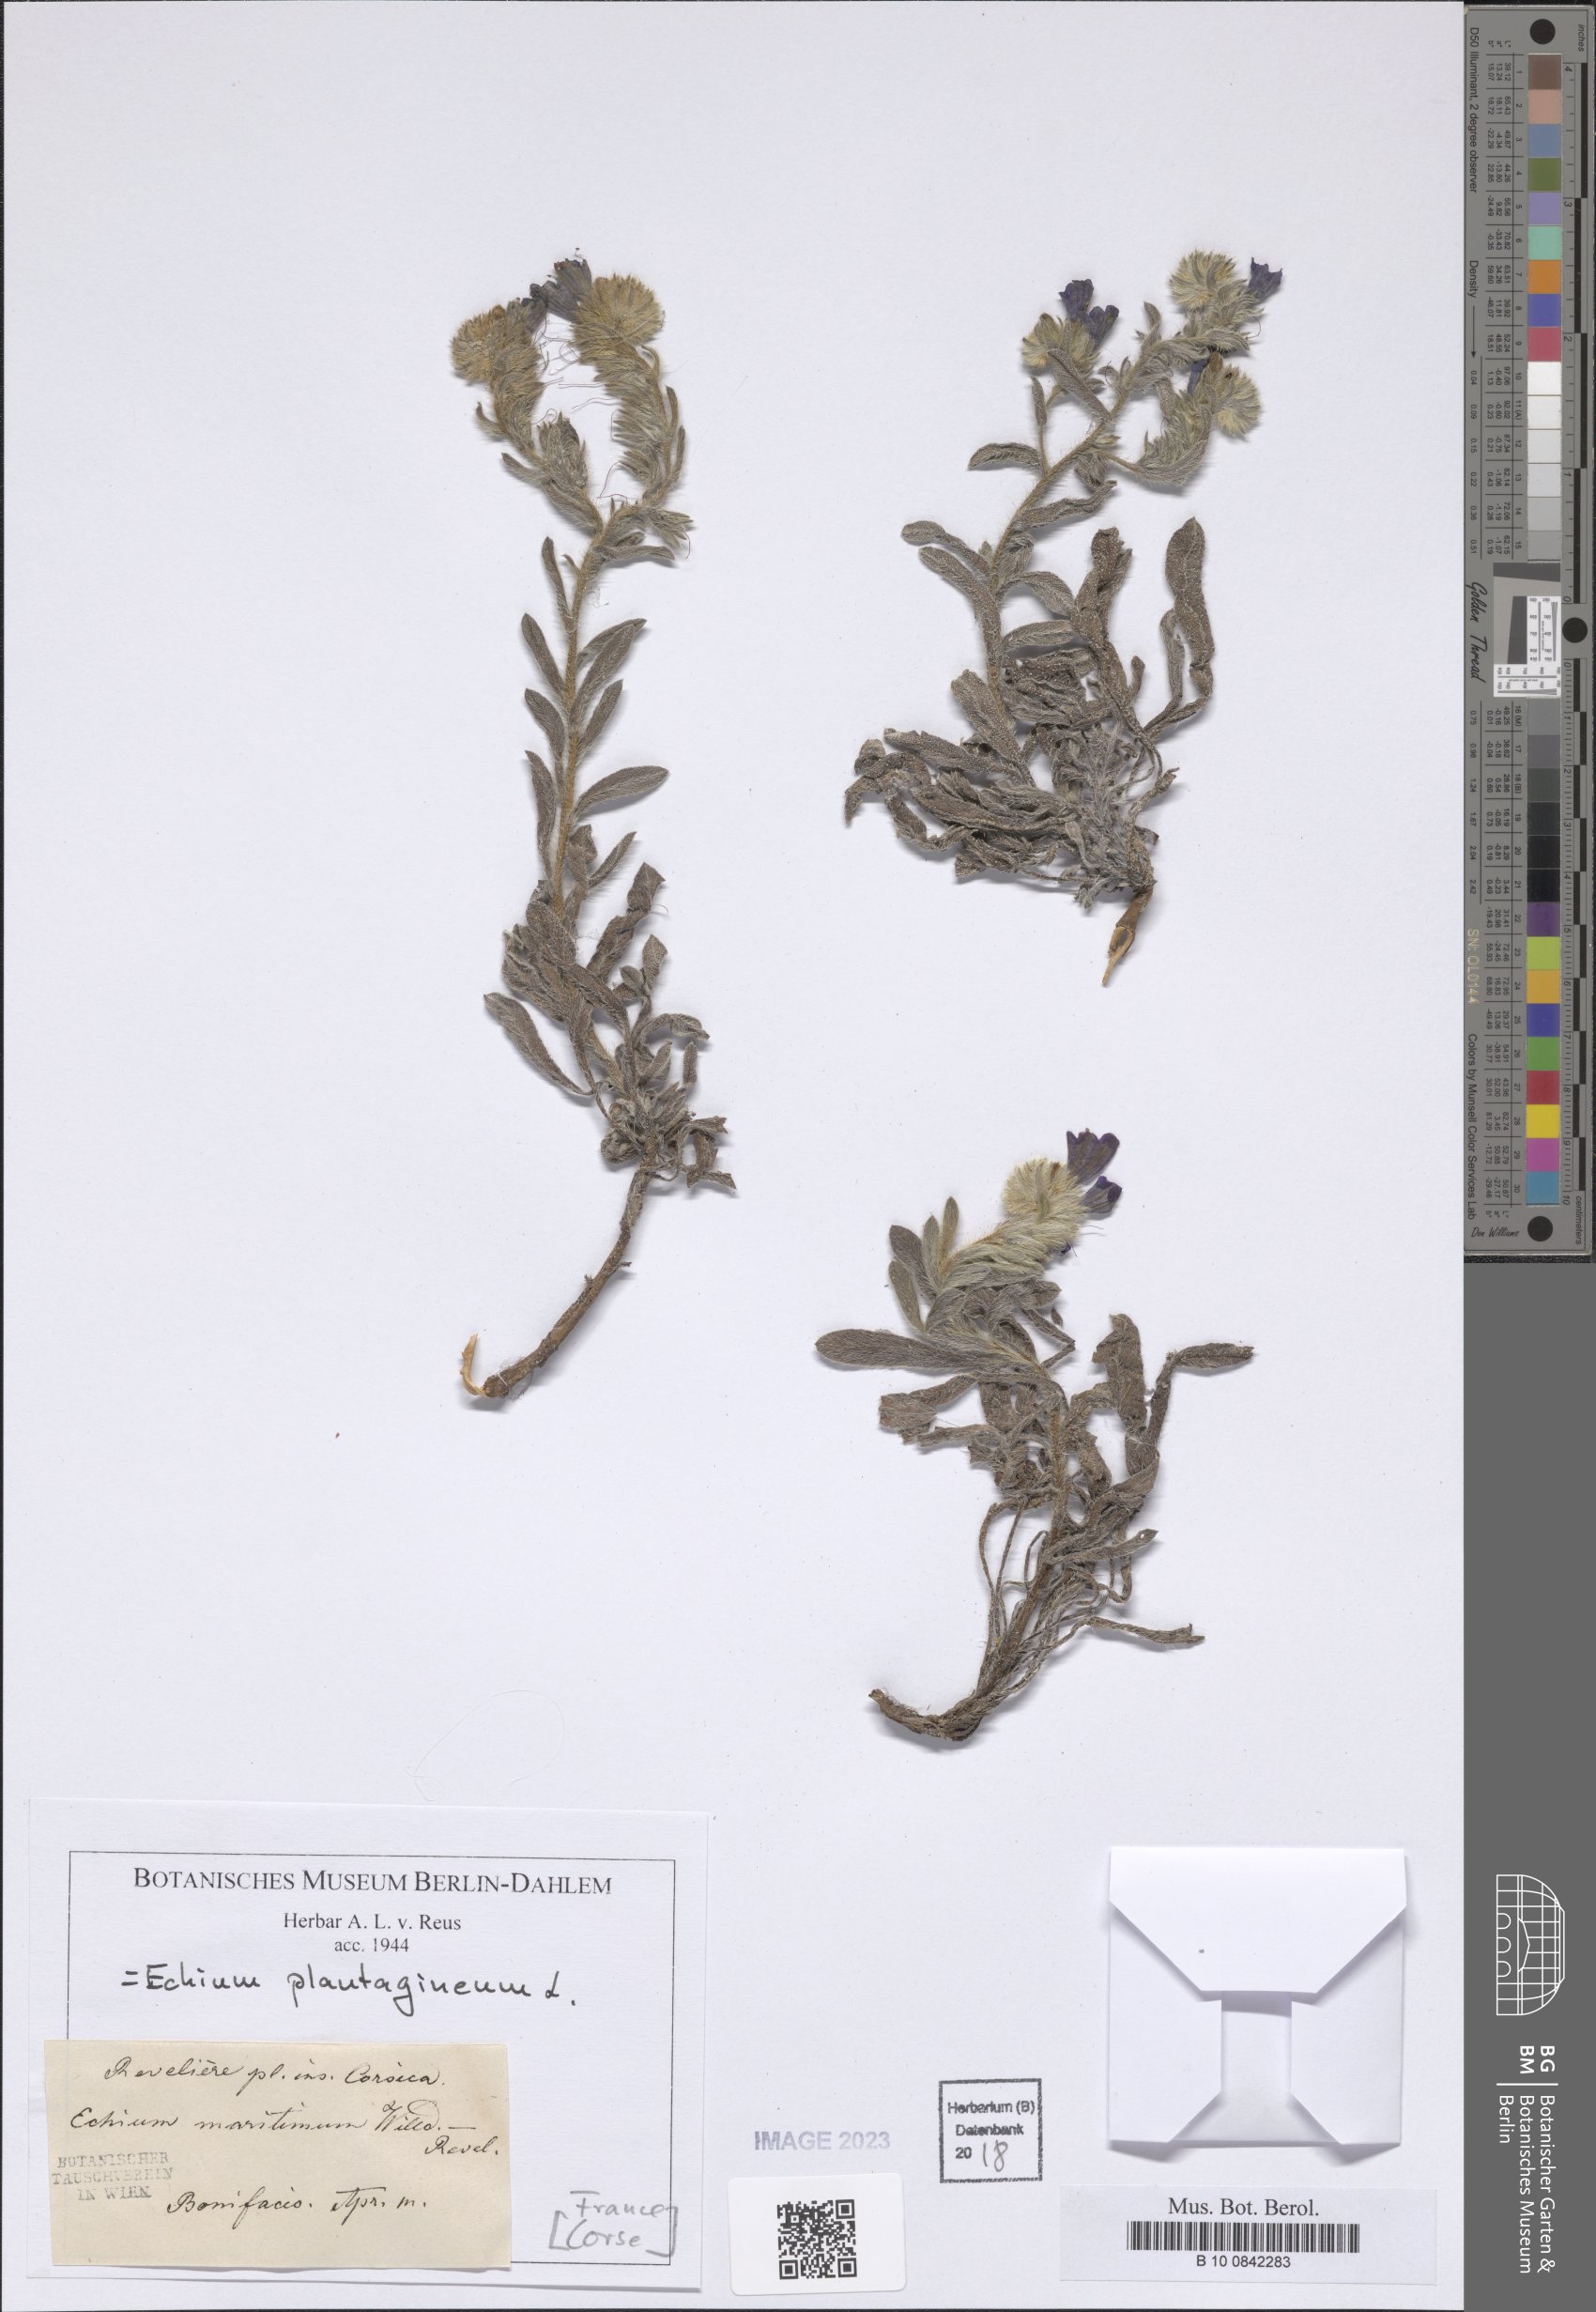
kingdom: Plantae
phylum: Tracheophyta
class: Magnoliopsida
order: Boraginales
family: Boraginaceae
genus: Echium
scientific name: Echium plantagineum
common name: Purple viper's-bugloss
